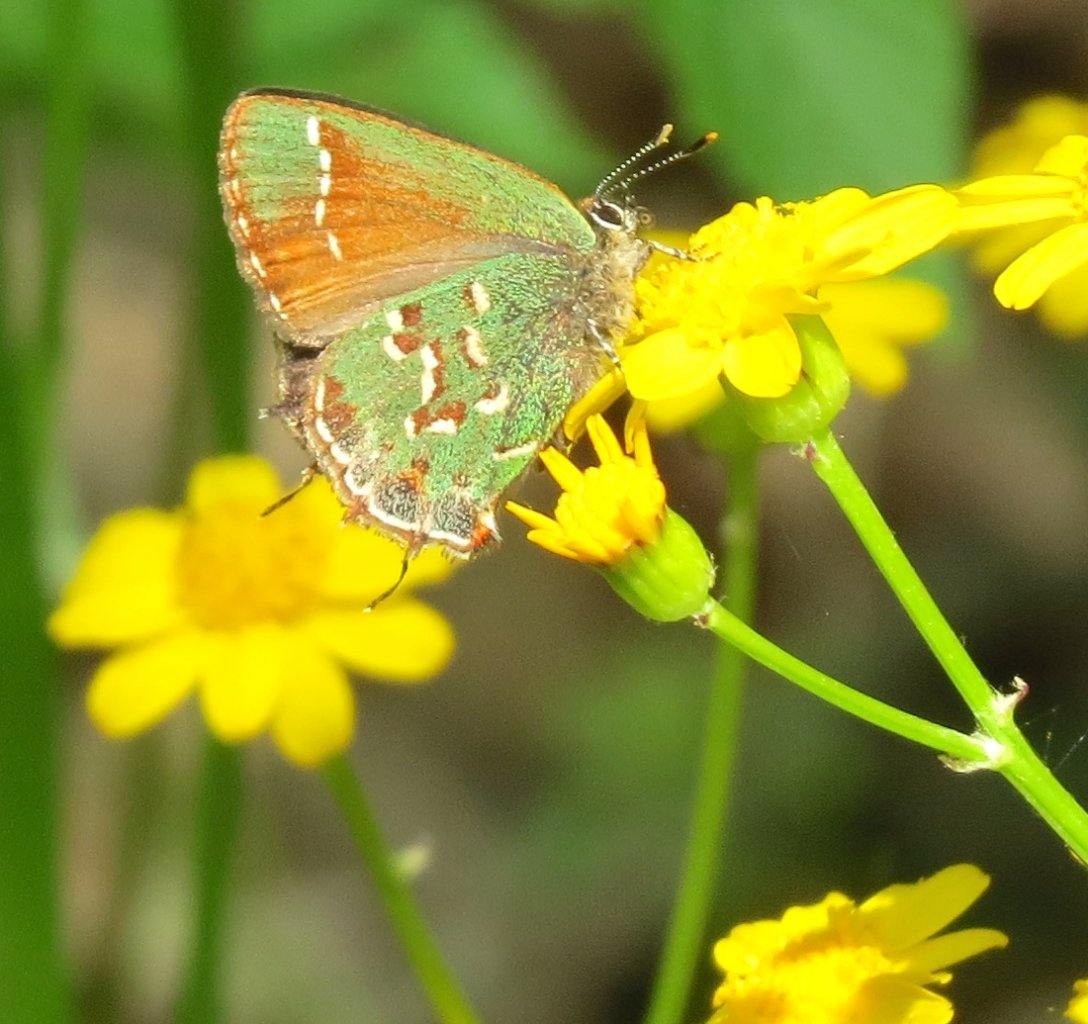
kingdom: Animalia
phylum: Arthropoda
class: Insecta
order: Lepidoptera
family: Lycaenidae
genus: Mitoura
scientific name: Mitoura gryneus
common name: Juniper Hairstreak
